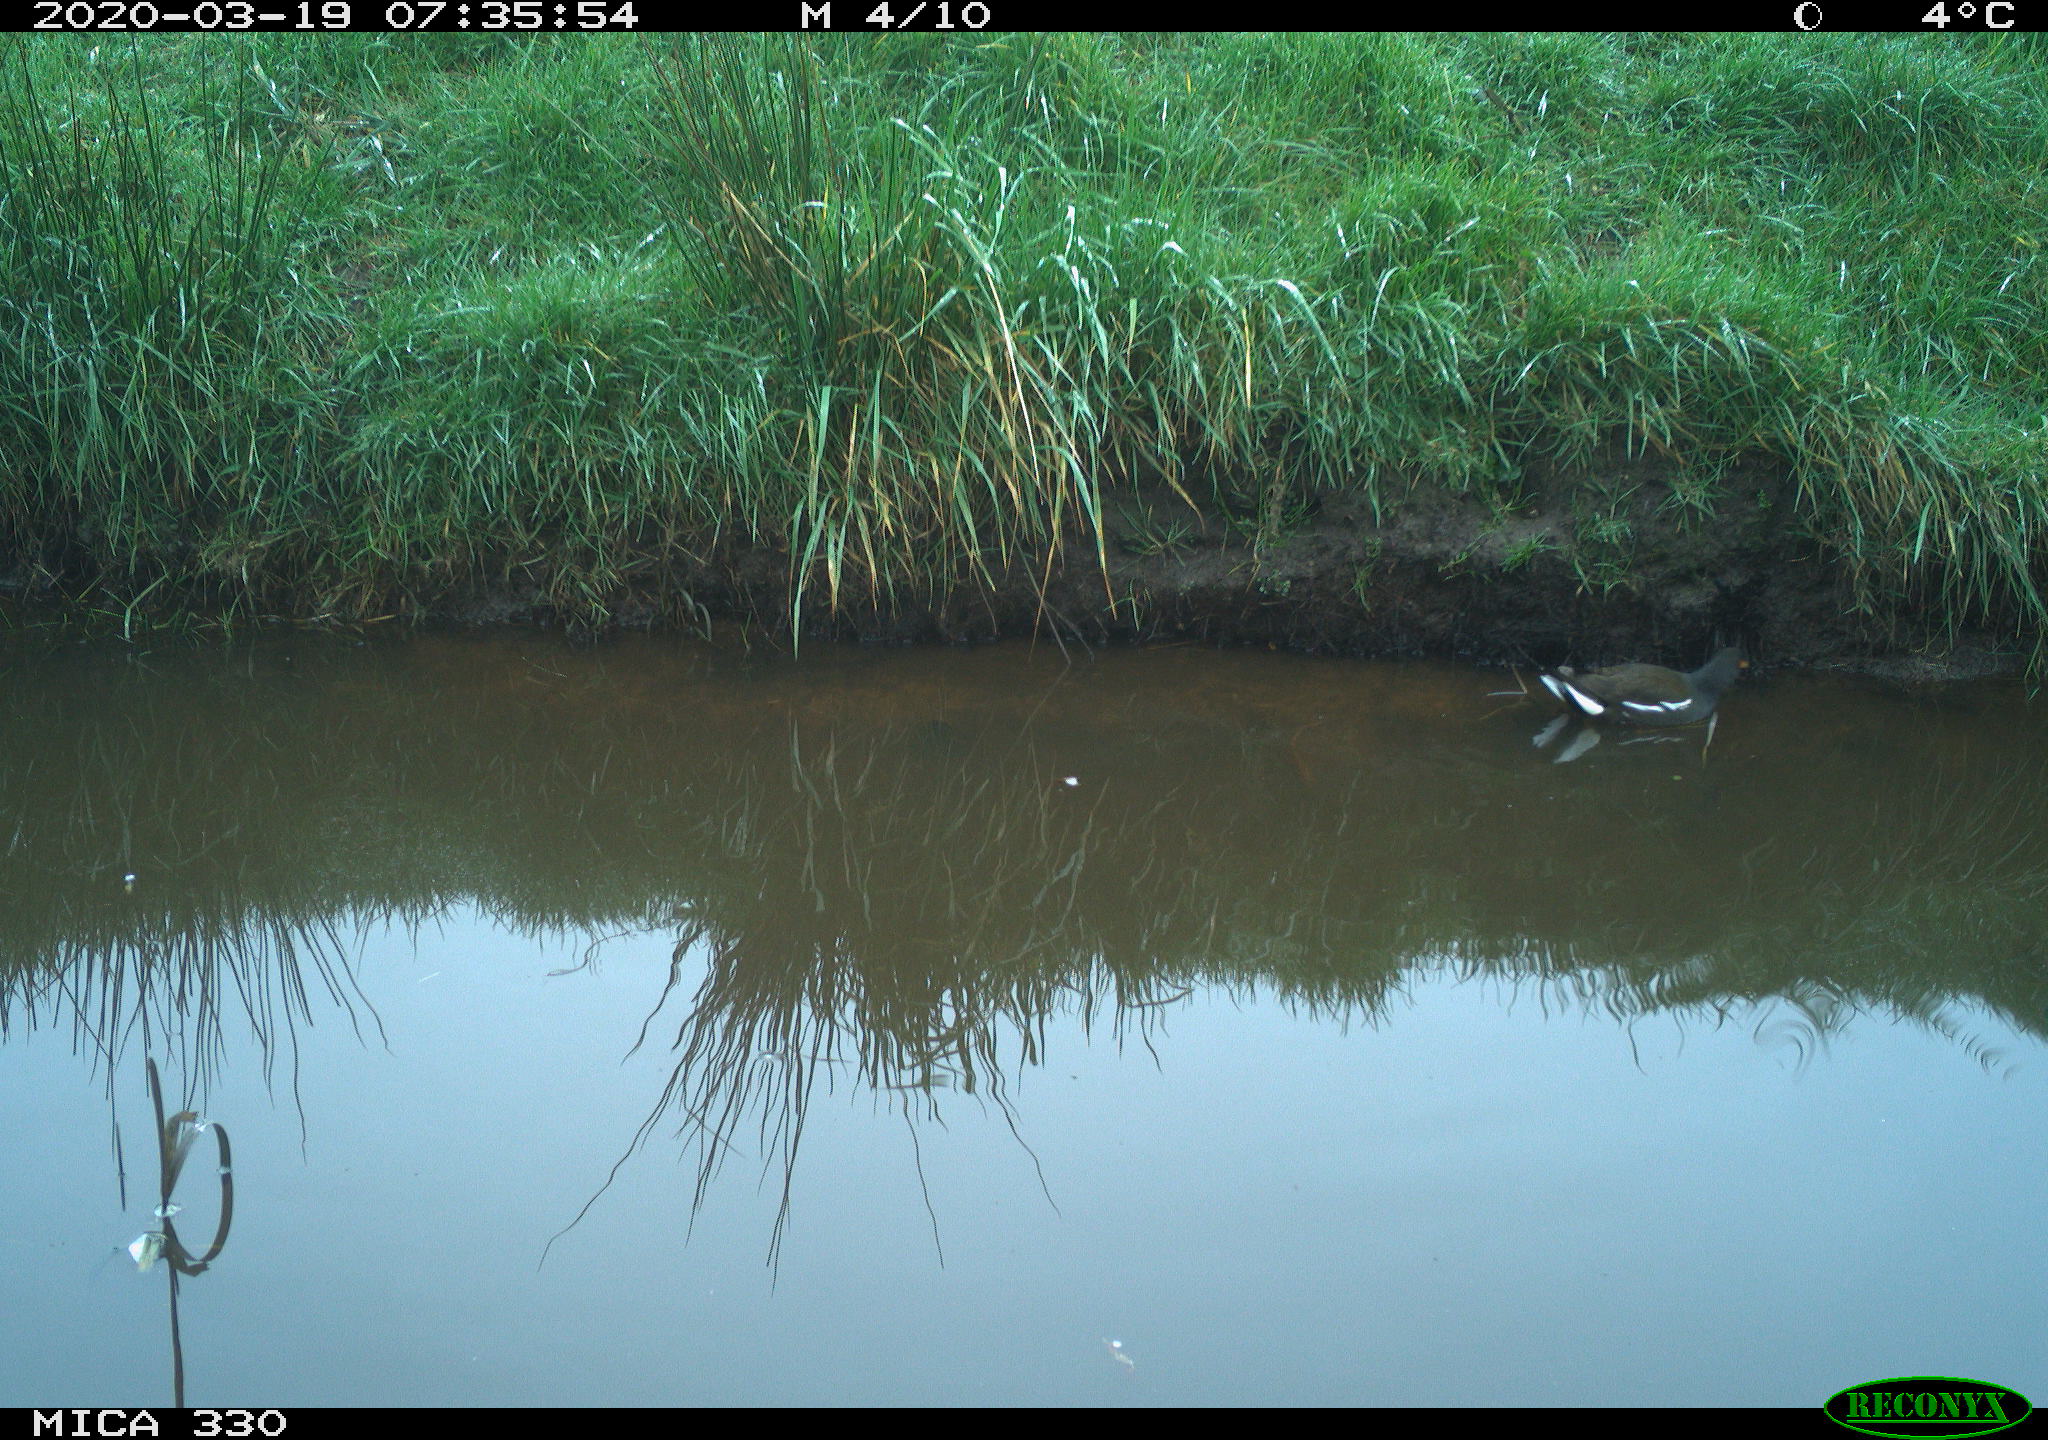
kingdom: Animalia
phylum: Chordata
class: Aves
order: Gruiformes
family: Rallidae
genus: Gallinula
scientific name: Gallinula chloropus
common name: Common moorhen
